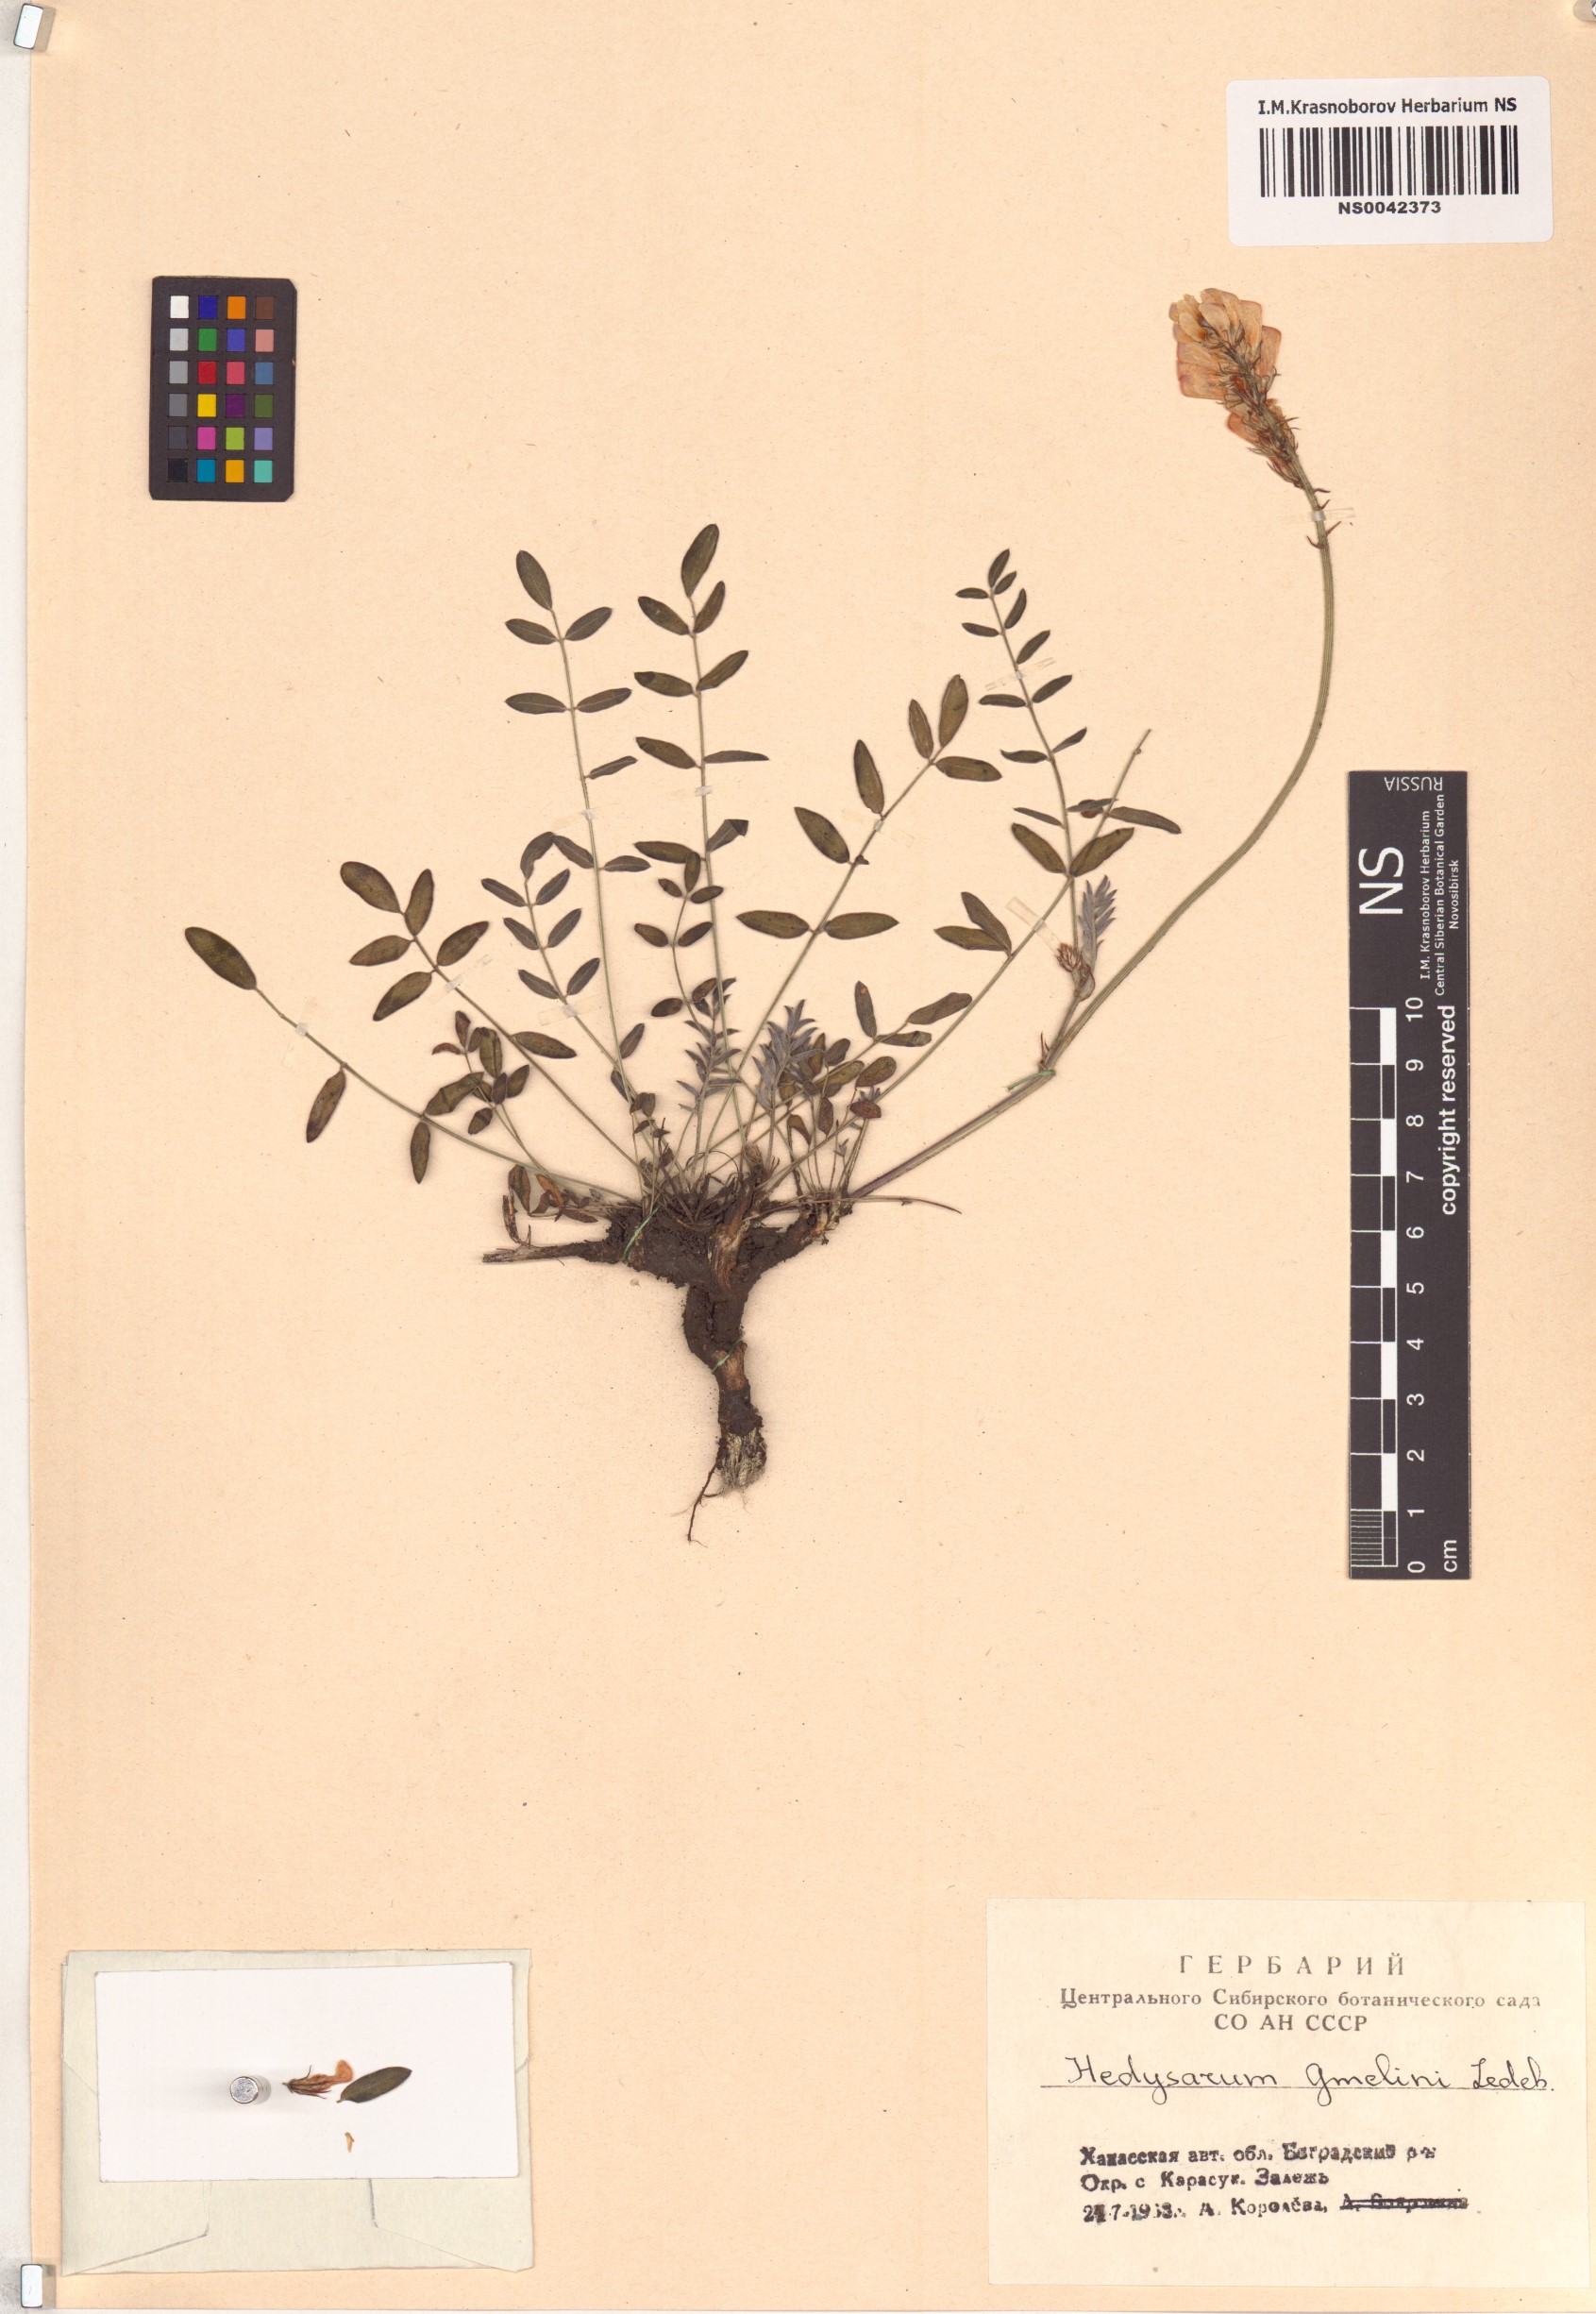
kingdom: Plantae
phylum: Tracheophyta
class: Magnoliopsida
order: Fabales
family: Fabaceae
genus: Hedysarum
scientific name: Hedysarum gmelinii
